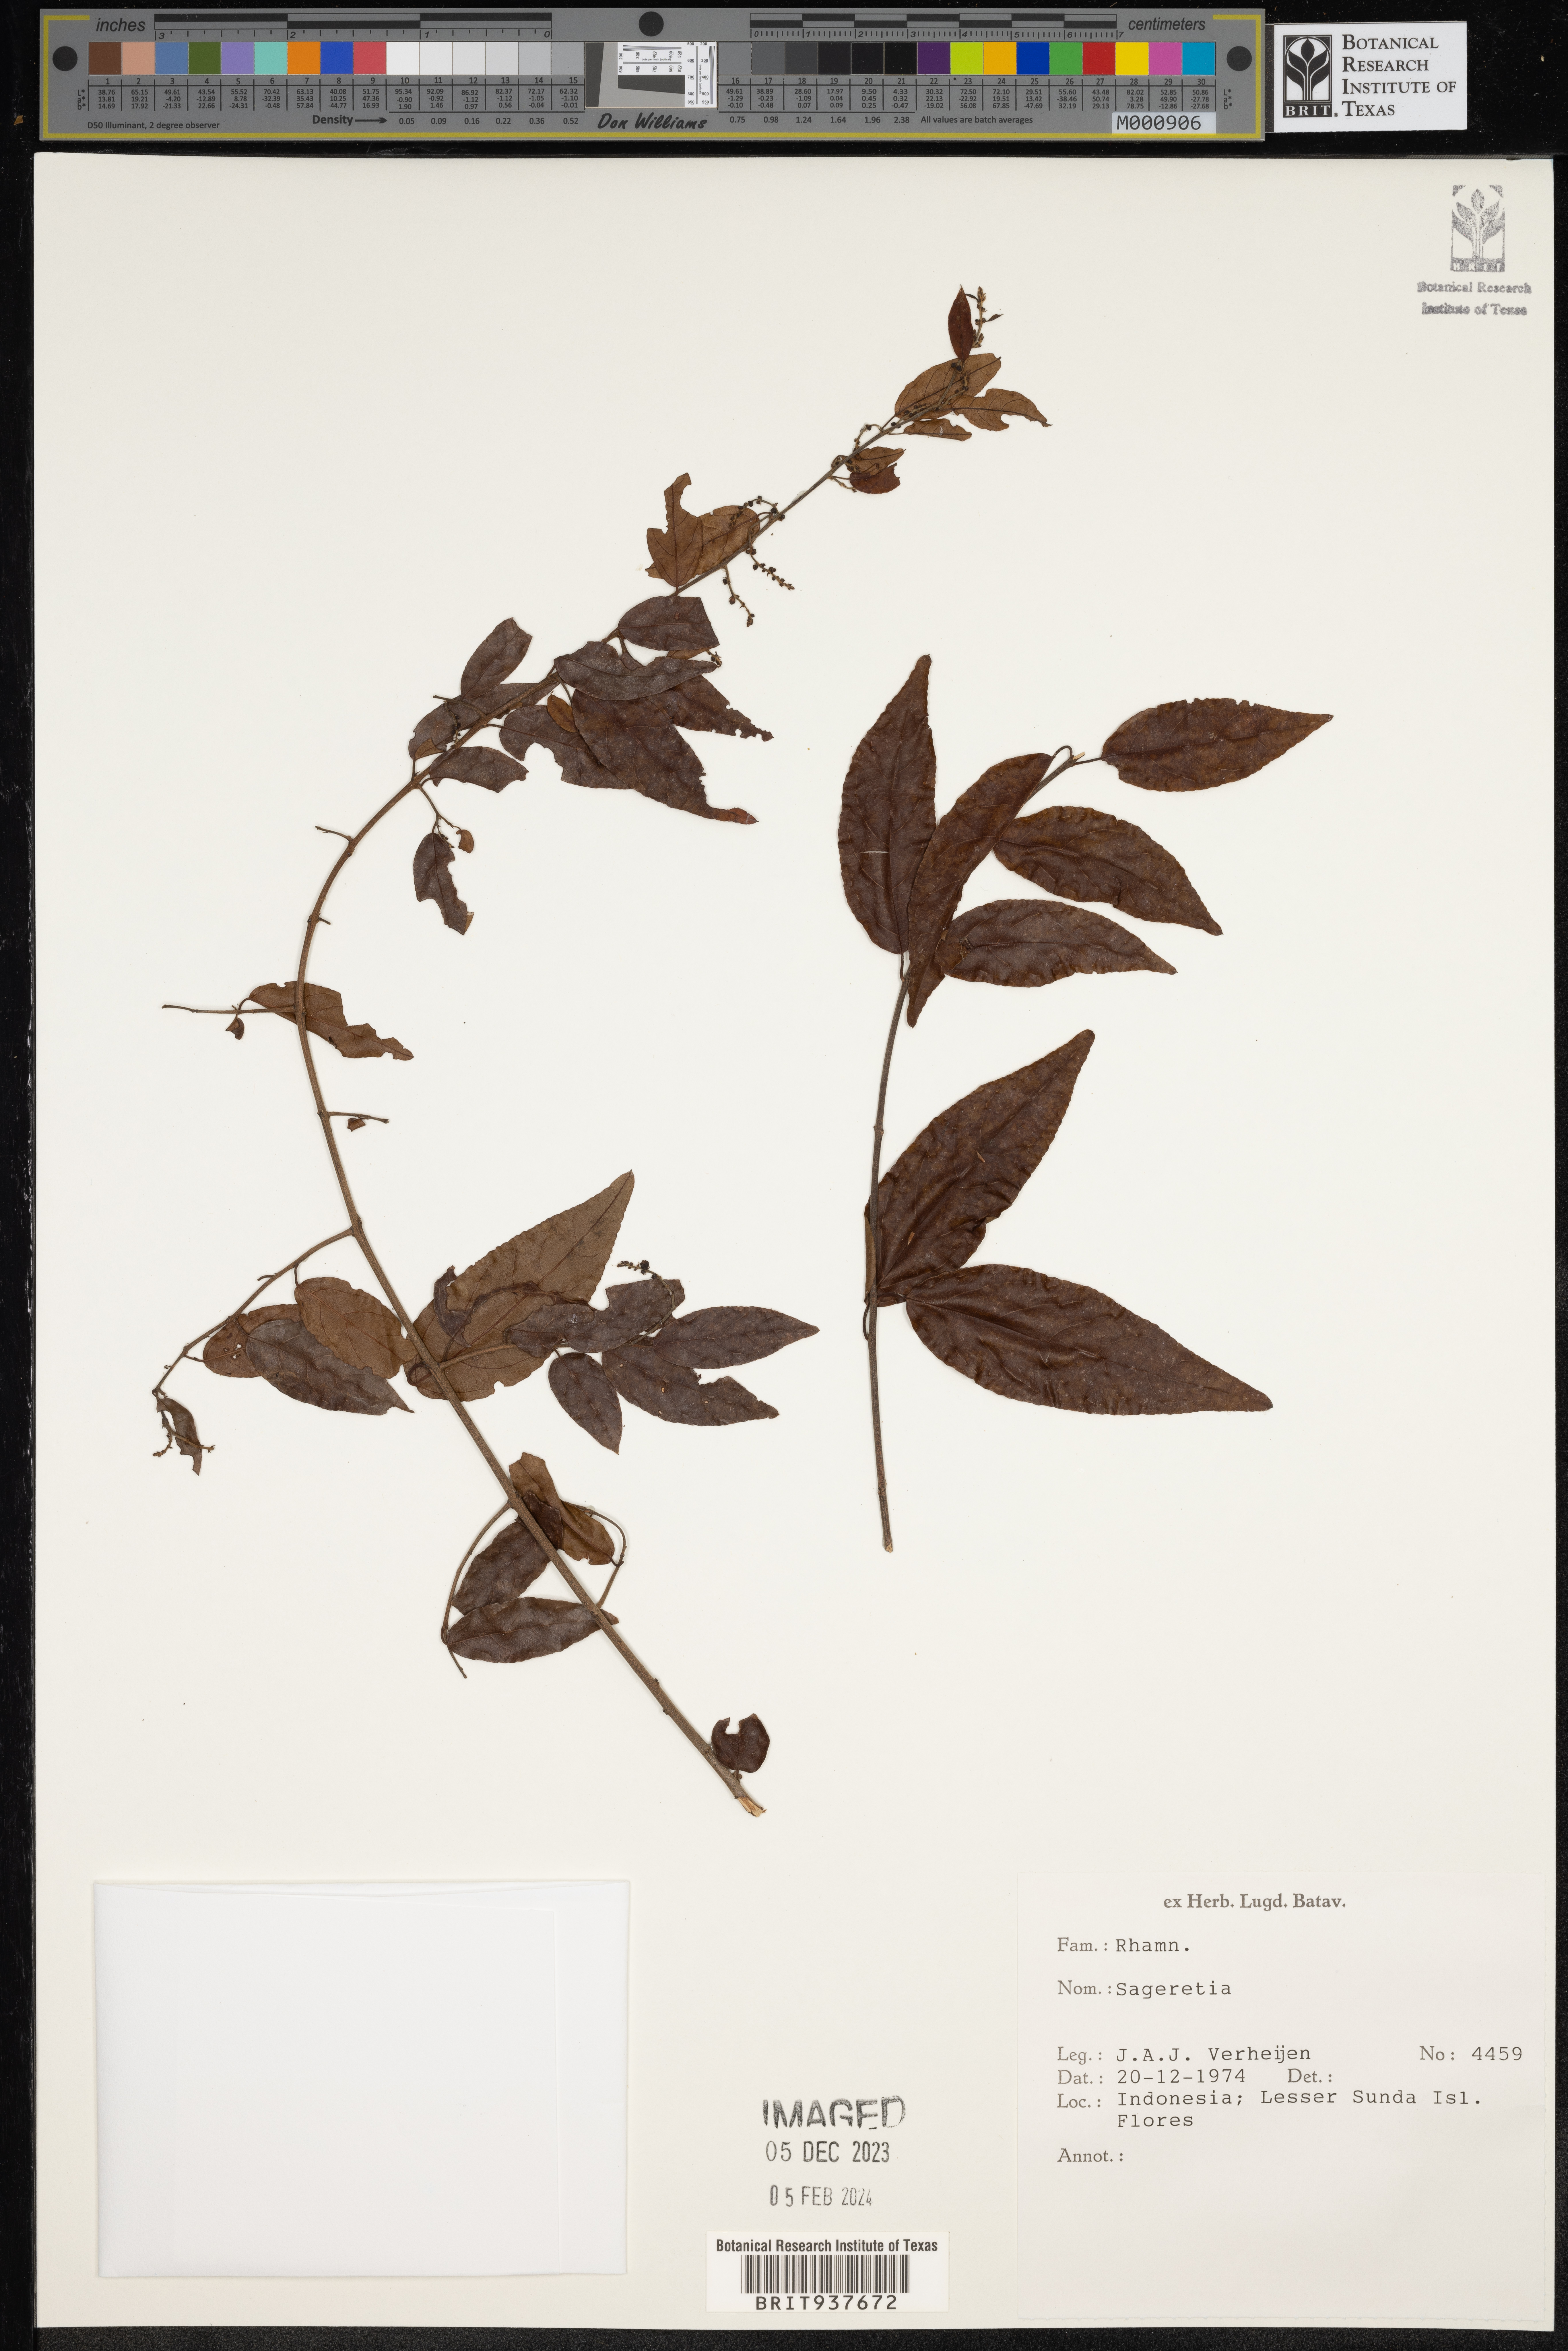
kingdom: Plantae
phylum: Tracheophyta
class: Magnoliopsida
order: Rosales
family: Rhamnaceae
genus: Sageretia
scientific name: Sageretia
